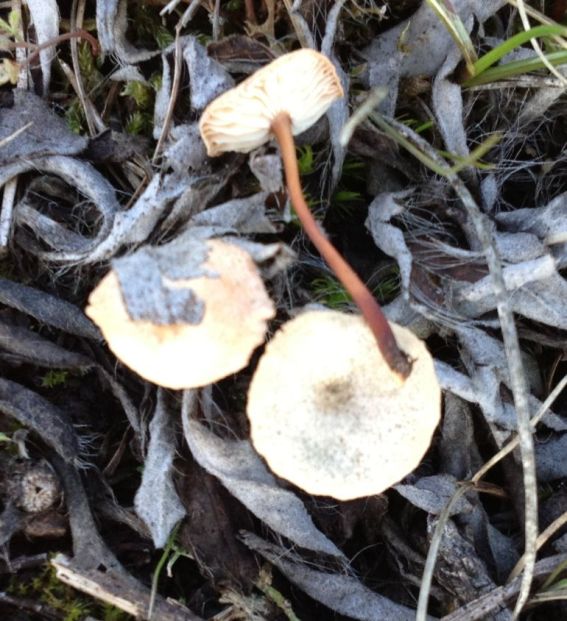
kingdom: Fungi
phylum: Basidiomycota
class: Agaricomycetes
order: Agaricales
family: Omphalotaceae
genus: Mycetinis
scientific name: Mycetinis scorodonius
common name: lille løghat
